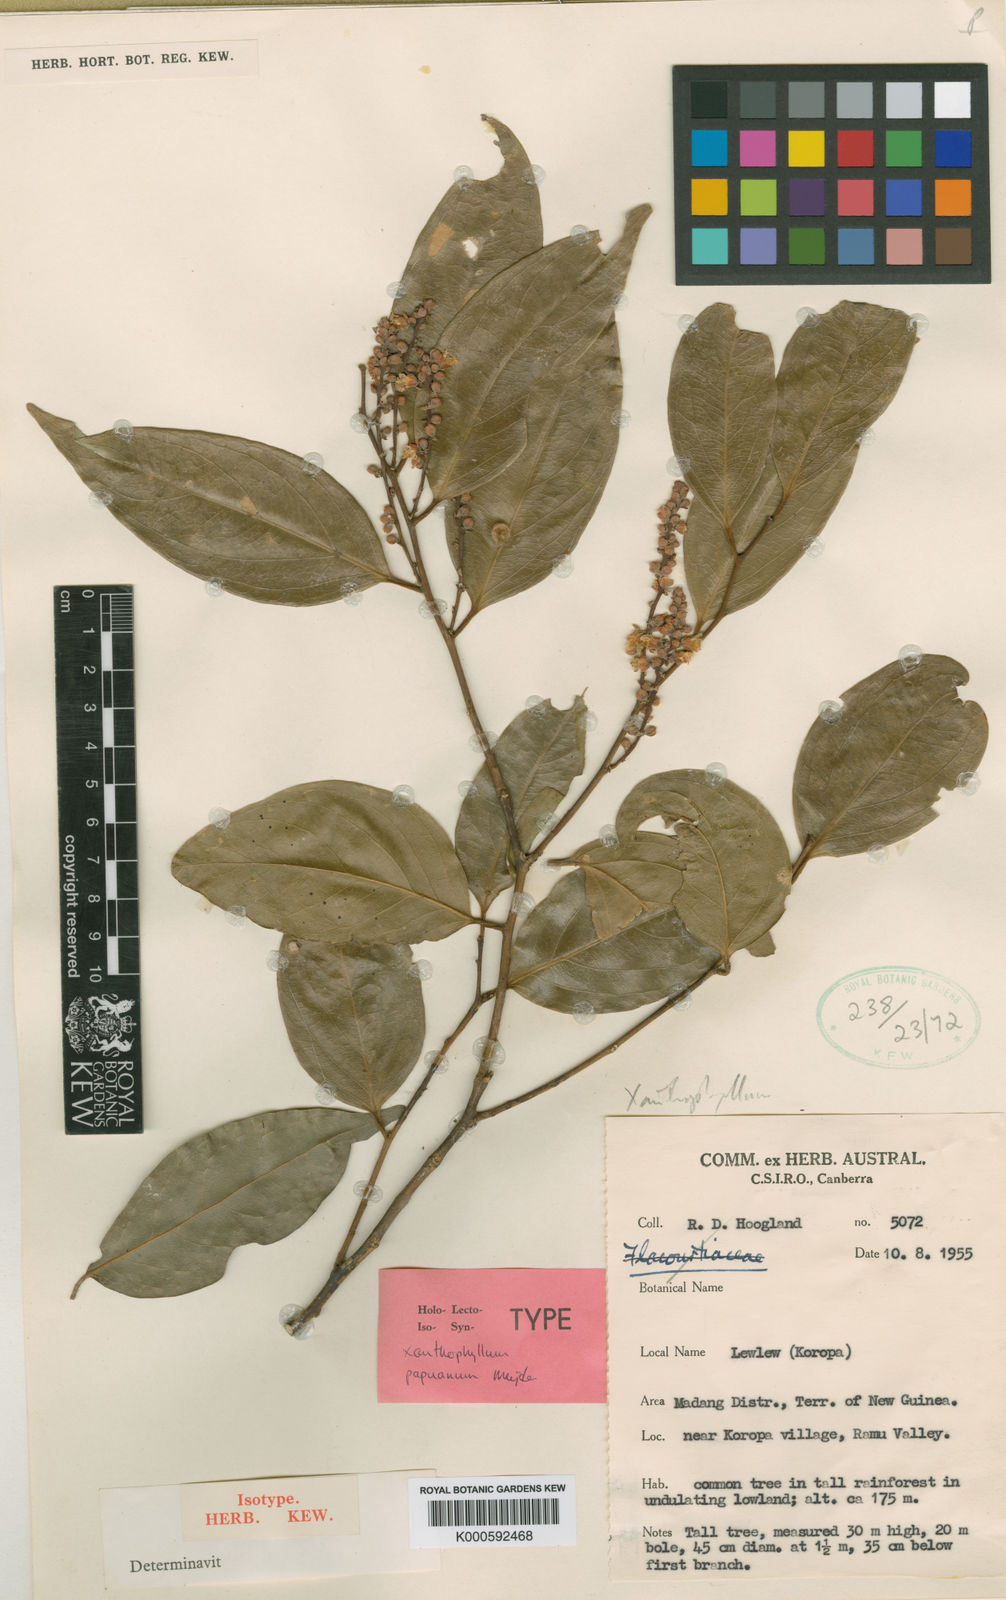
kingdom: Plantae
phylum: Tracheophyta
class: Magnoliopsida
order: Fabales
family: Polygalaceae
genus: Xanthophyllum
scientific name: Xanthophyllum papuanum
